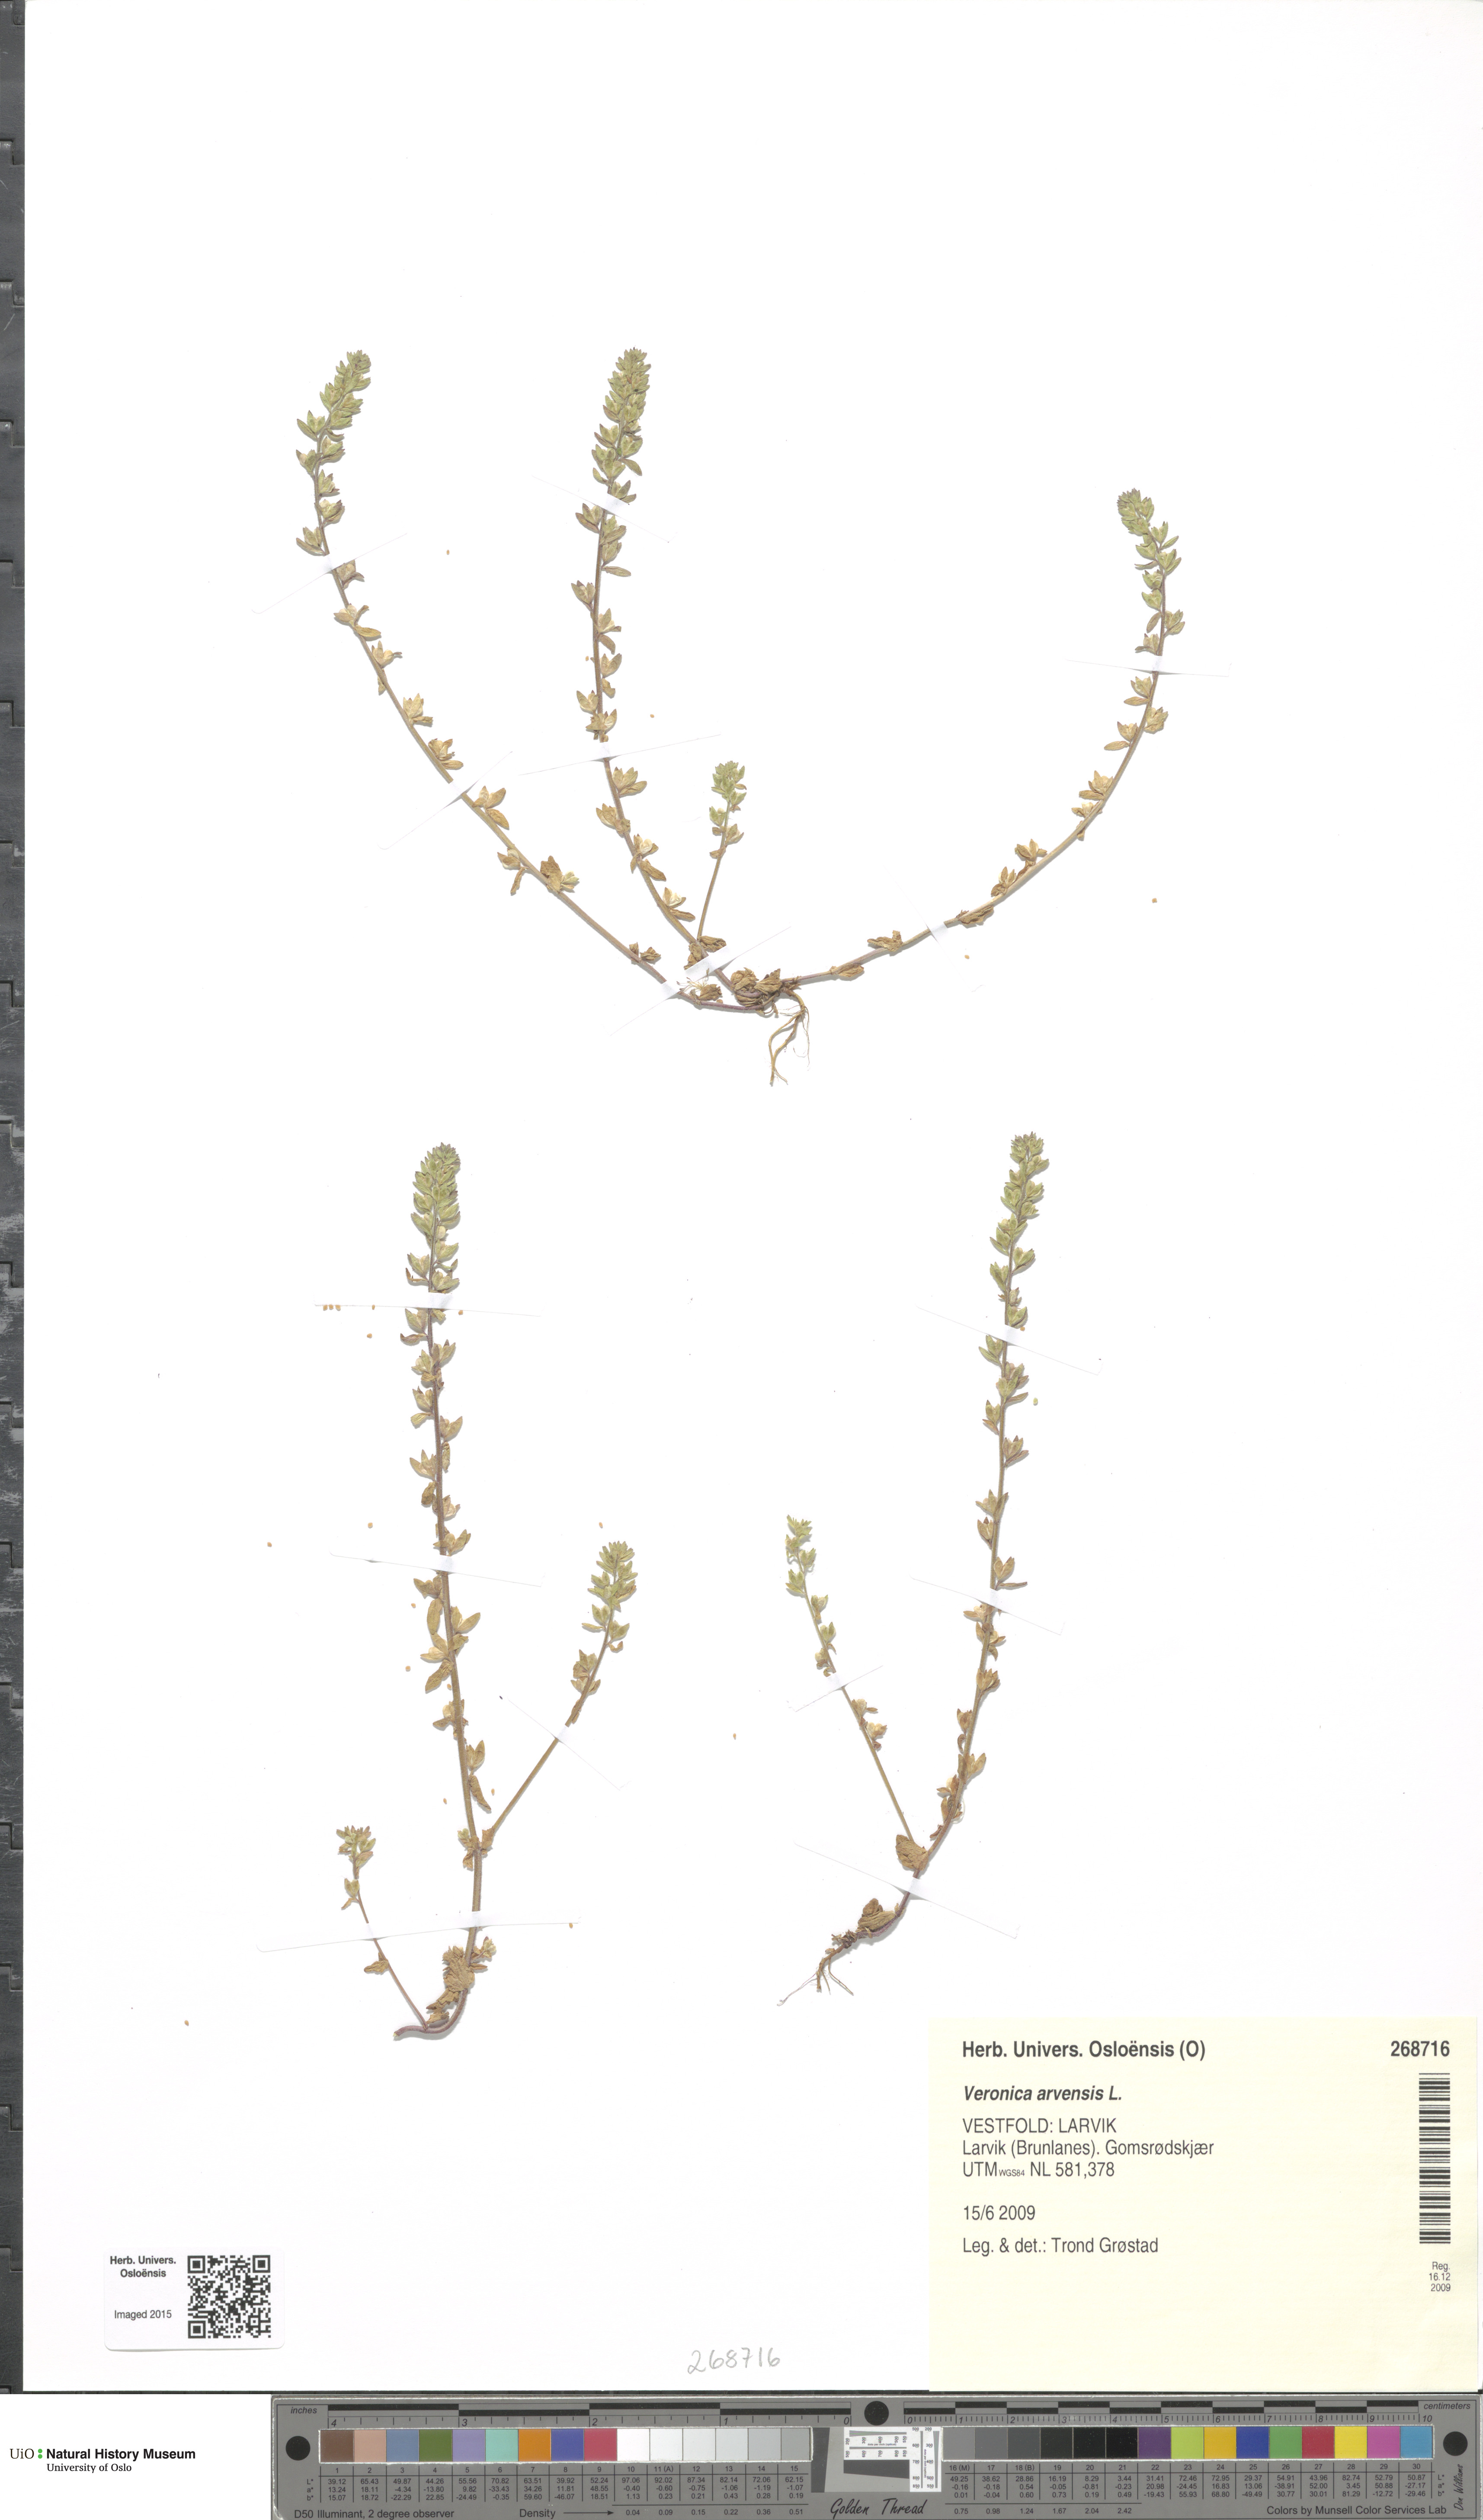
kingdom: Plantae
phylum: Tracheophyta
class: Magnoliopsida
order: Lamiales
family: Plantaginaceae
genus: Veronica
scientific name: Veronica arvensis
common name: Corn speedwell
